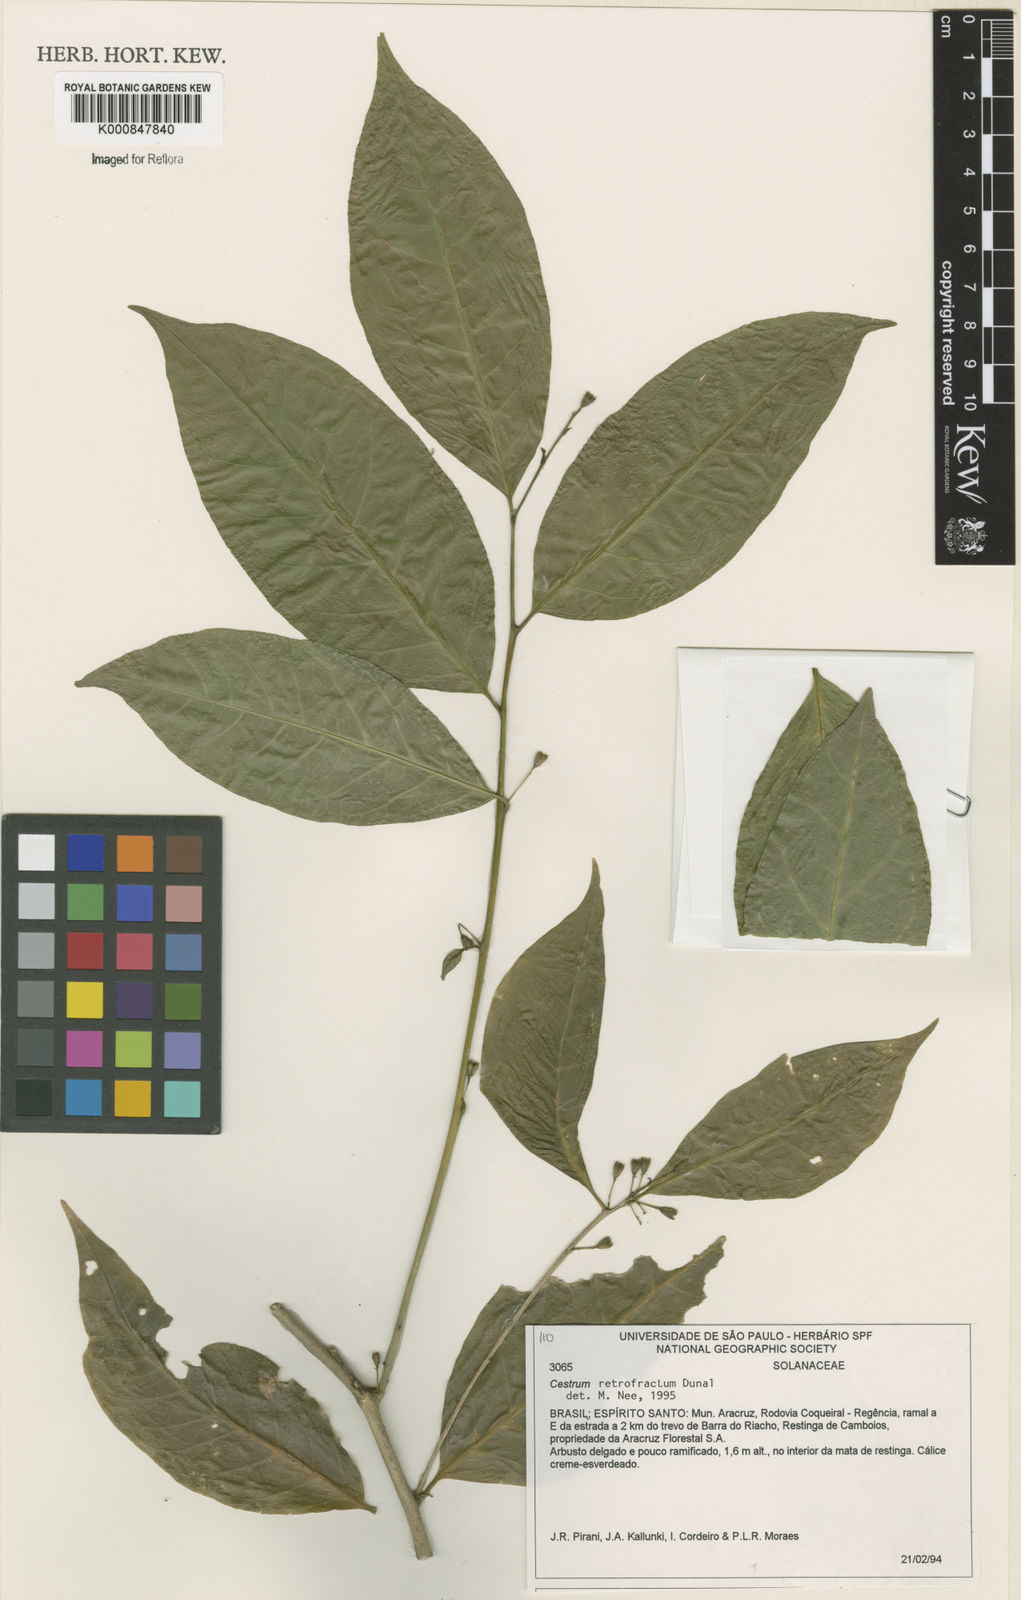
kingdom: Plantae
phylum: Tracheophyta
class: Magnoliopsida
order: Solanales
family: Solanaceae
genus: Cestrum
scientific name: Cestrum retrofractum
